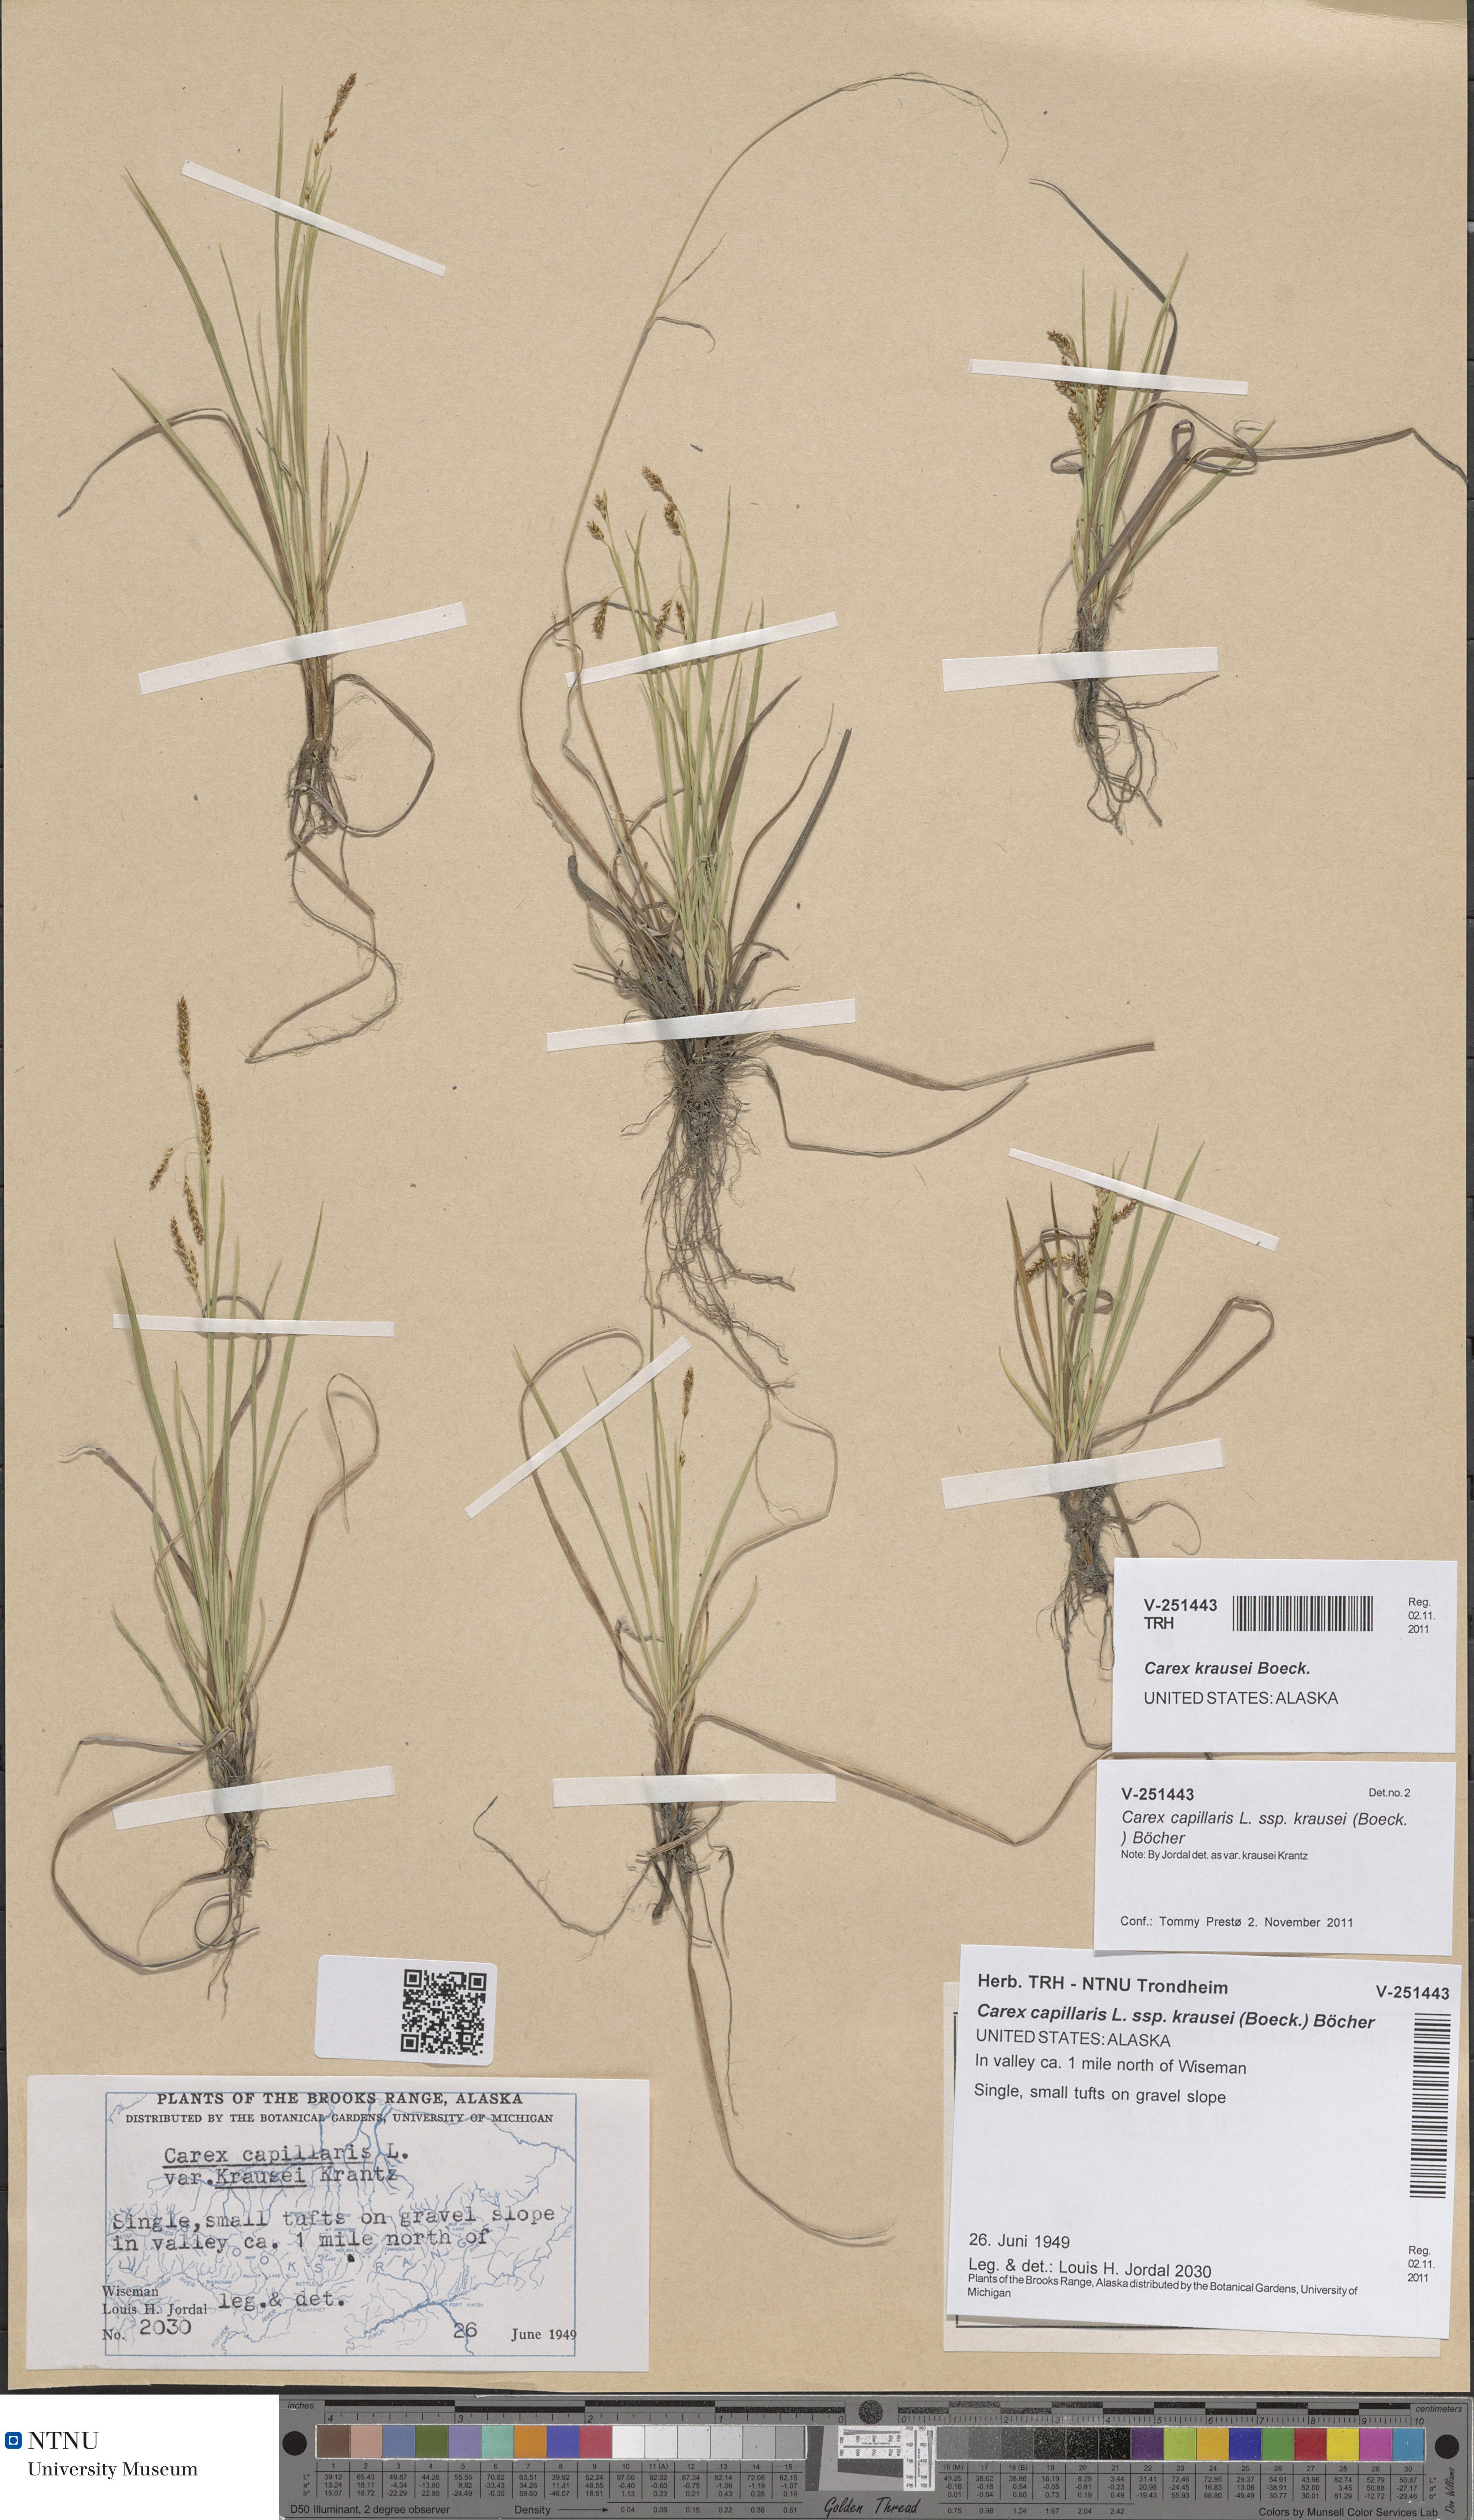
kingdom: Plantae
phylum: Tracheophyta
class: Liliopsida
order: Poales
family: Cyperaceae
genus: Carex
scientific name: Carex krausei
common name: Krause's sedge
